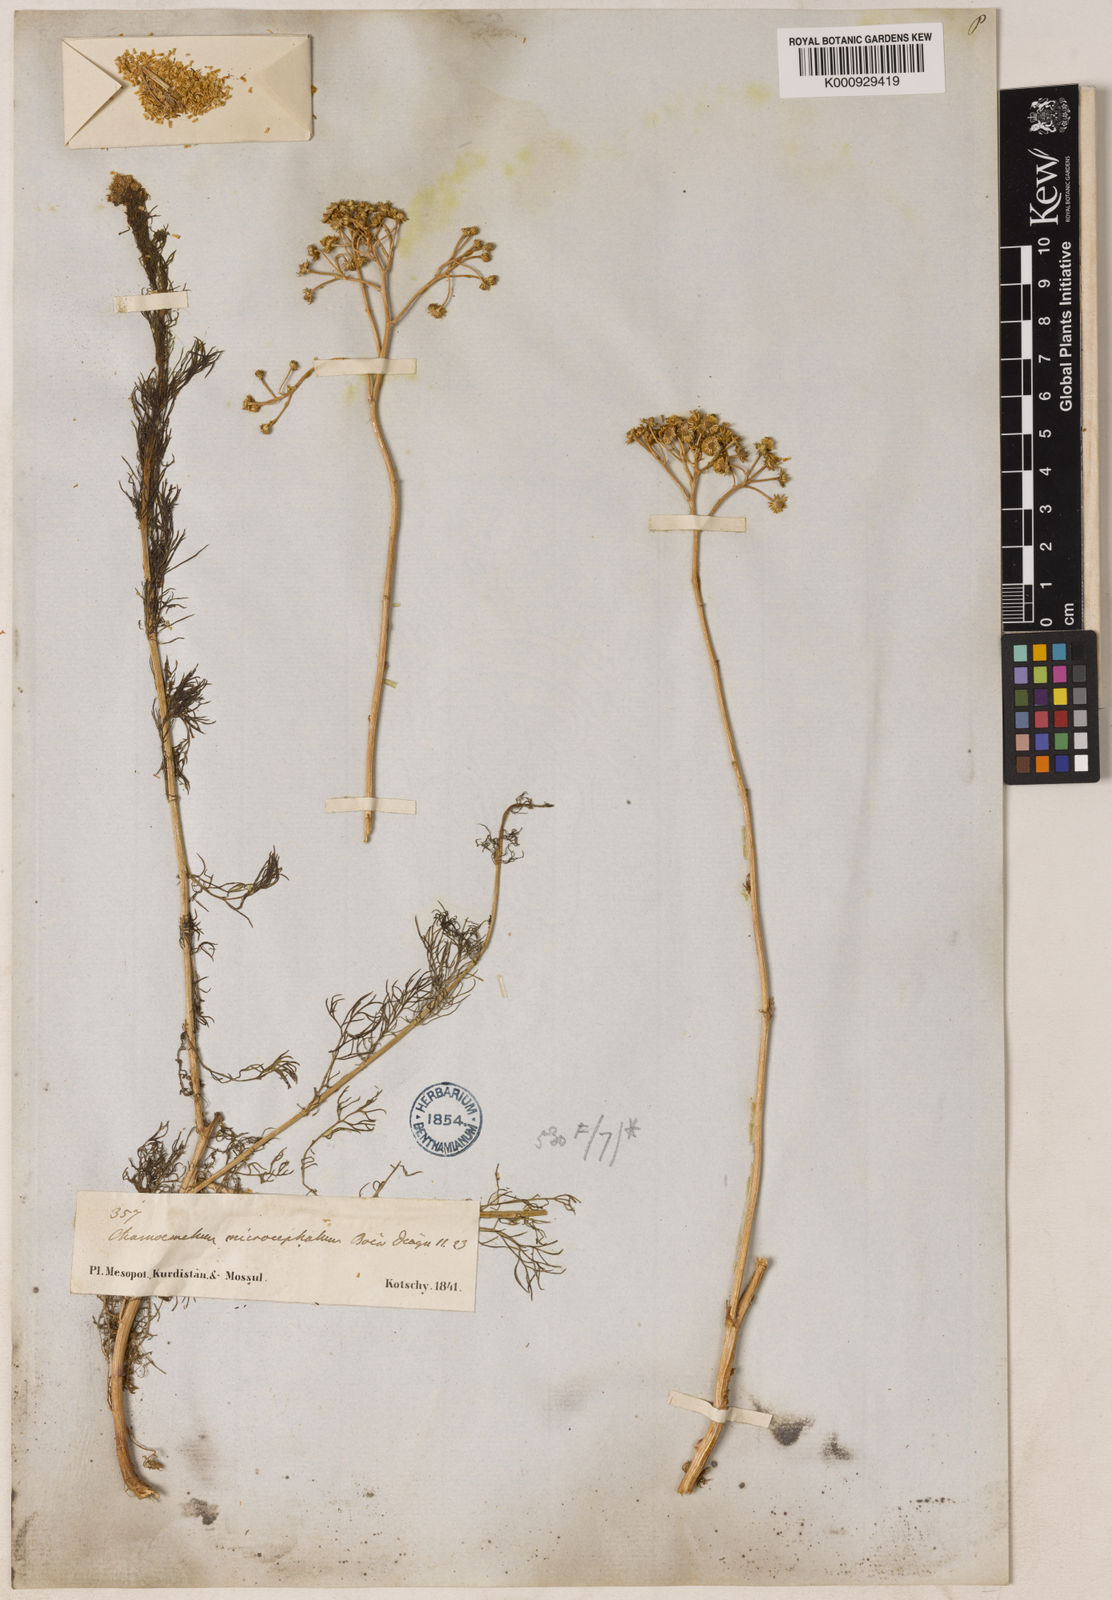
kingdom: Plantae
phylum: Tracheophyta
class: Magnoliopsida
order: Asterales
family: Asteraceae
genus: Tripleurospermum
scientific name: Tripleurospermum microcephalum
